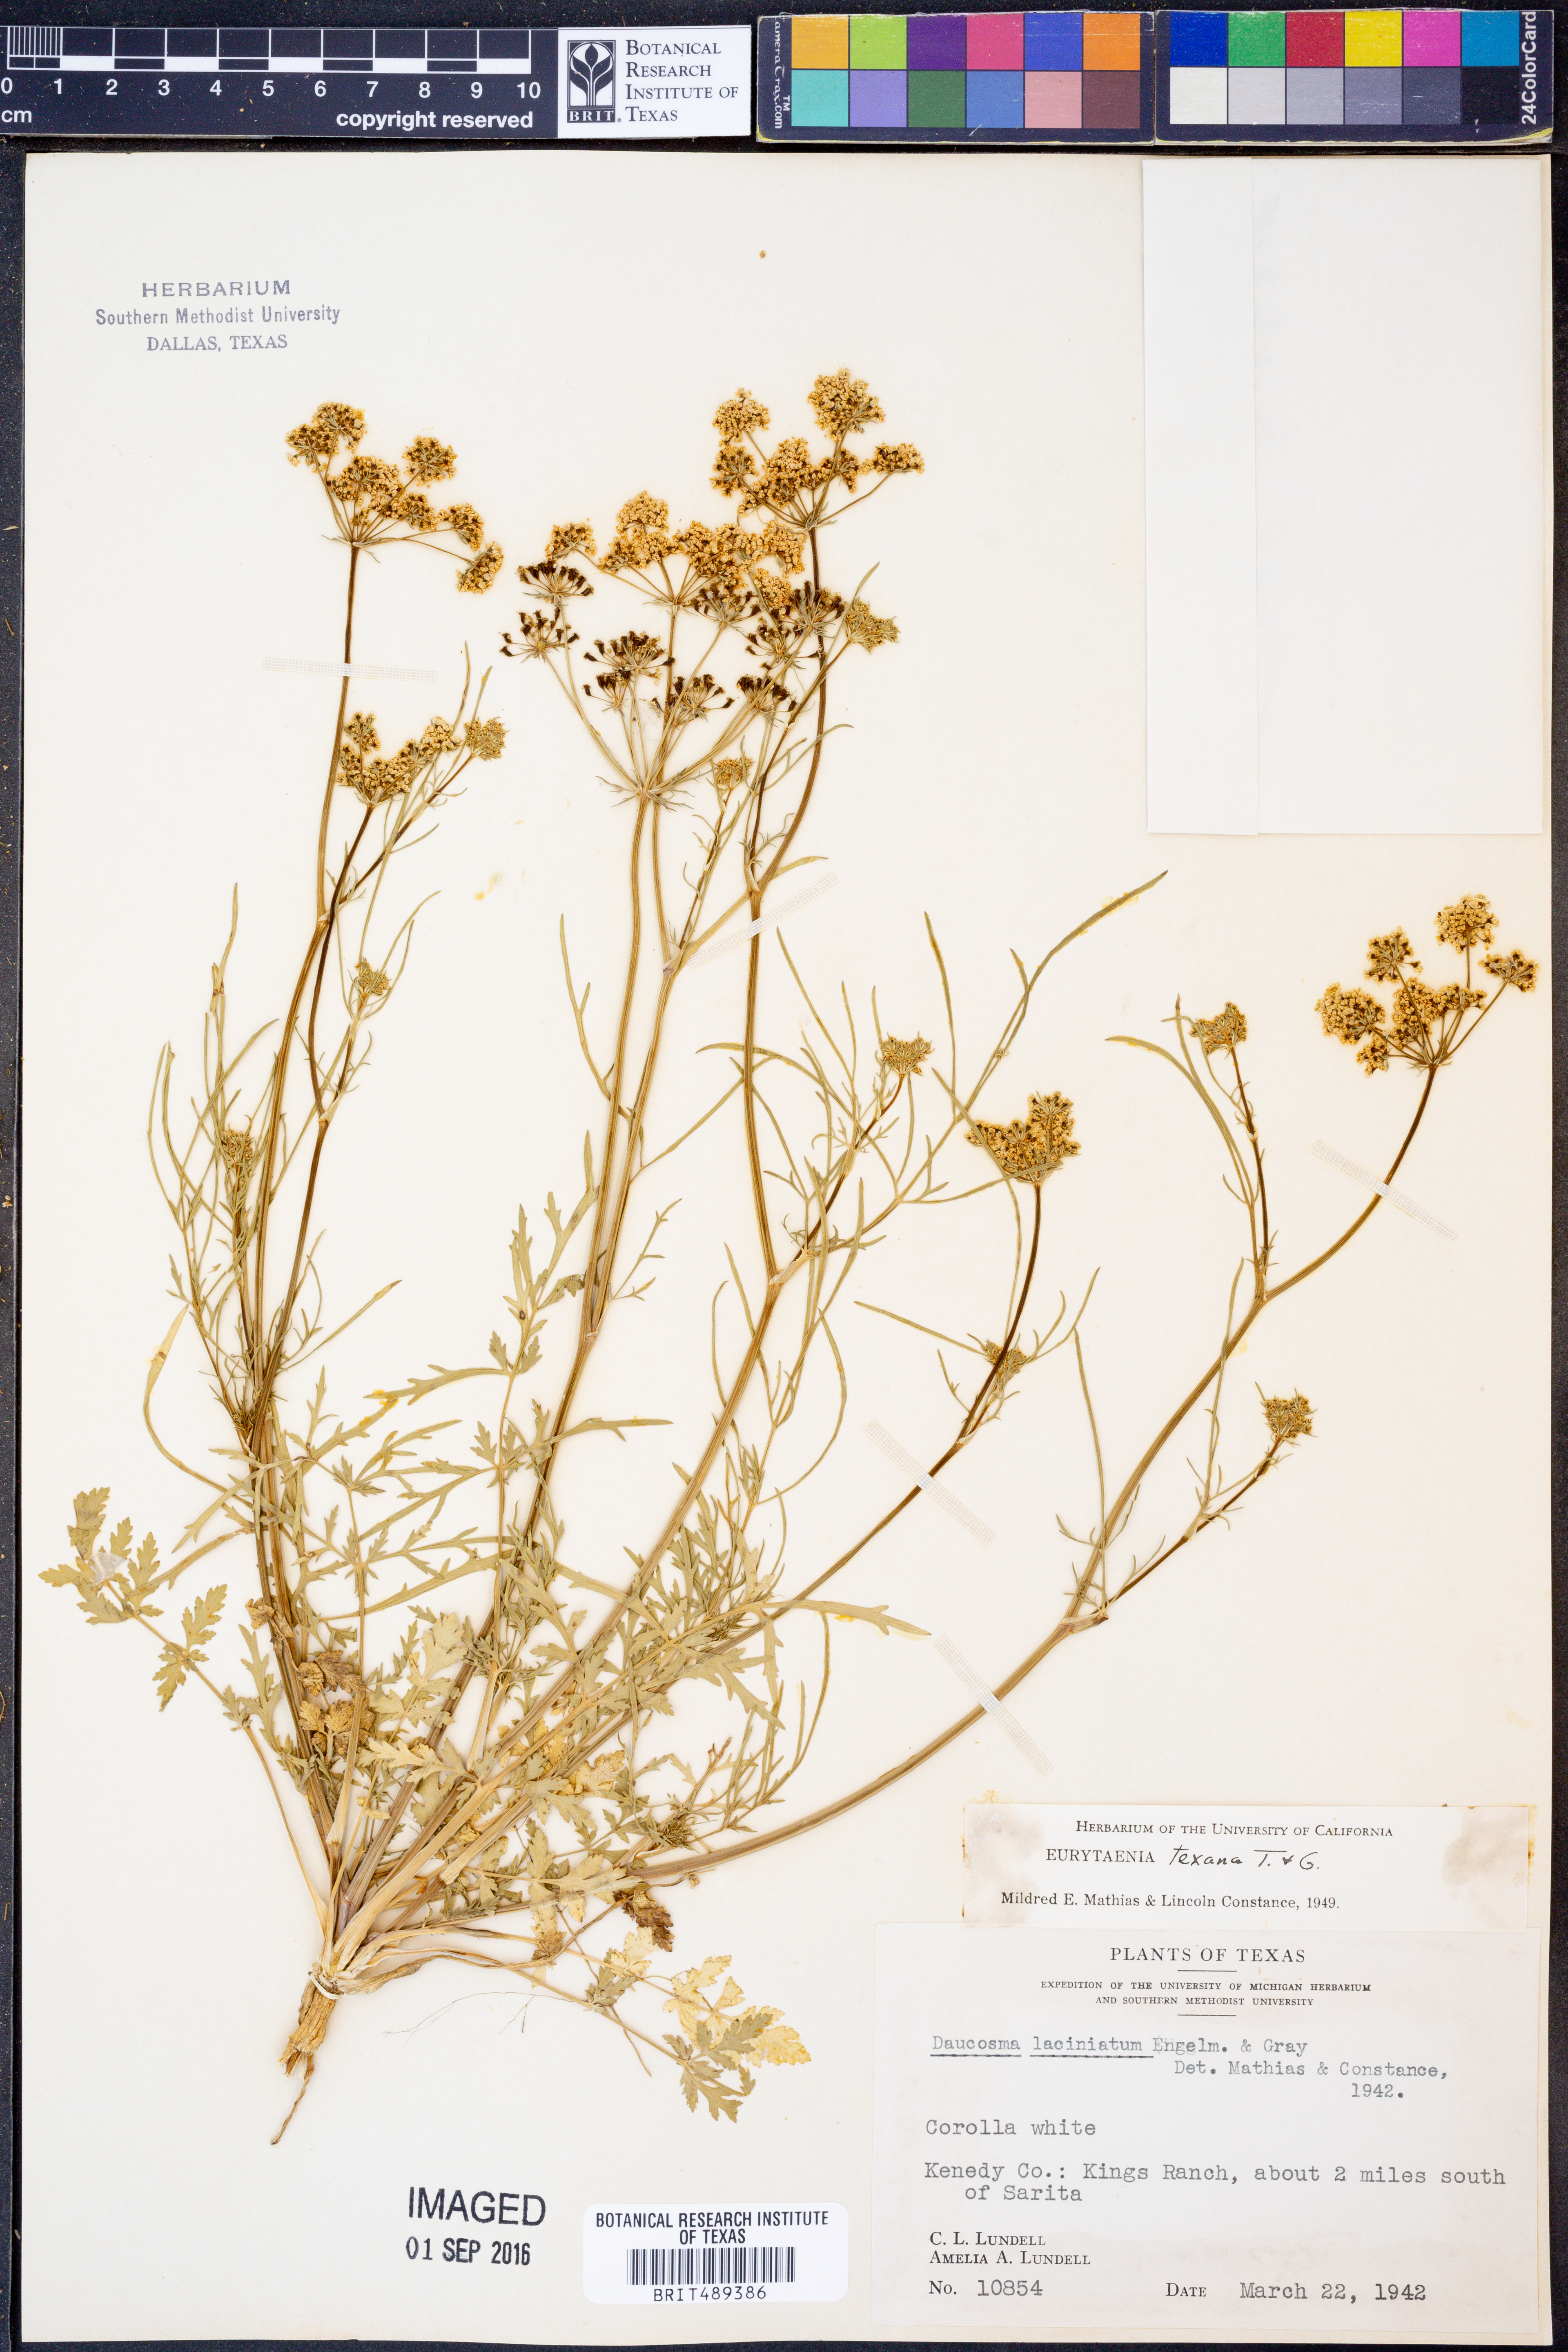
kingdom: Plantae
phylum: Tracheophyta
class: Magnoliopsida
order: Apiales
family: Apiaceae
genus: Eurytaenia
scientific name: Eurytaenia texana
